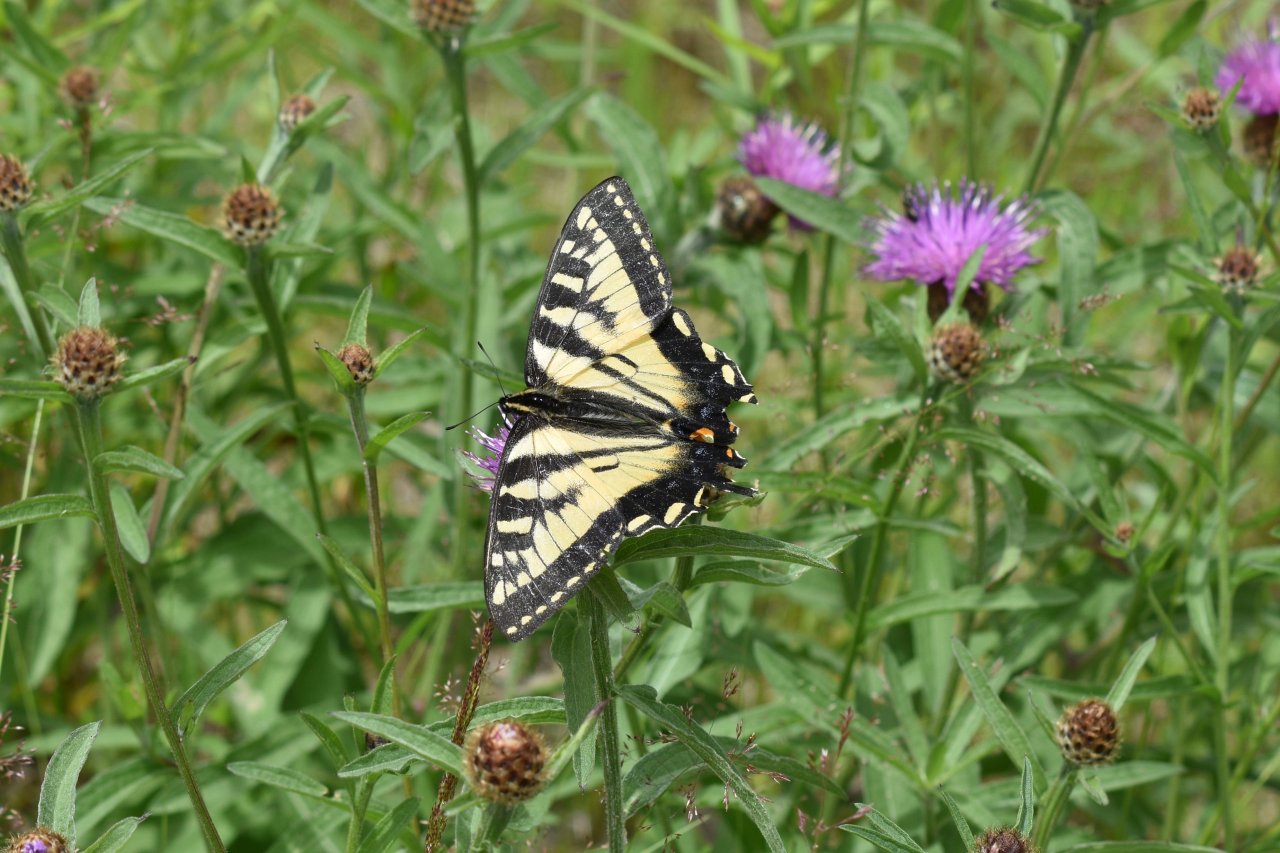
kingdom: Animalia
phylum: Arthropoda
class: Insecta
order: Lepidoptera
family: Papilionidae
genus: Pterourus
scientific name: Pterourus canadensis
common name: Canadian Tiger Swallowtail
